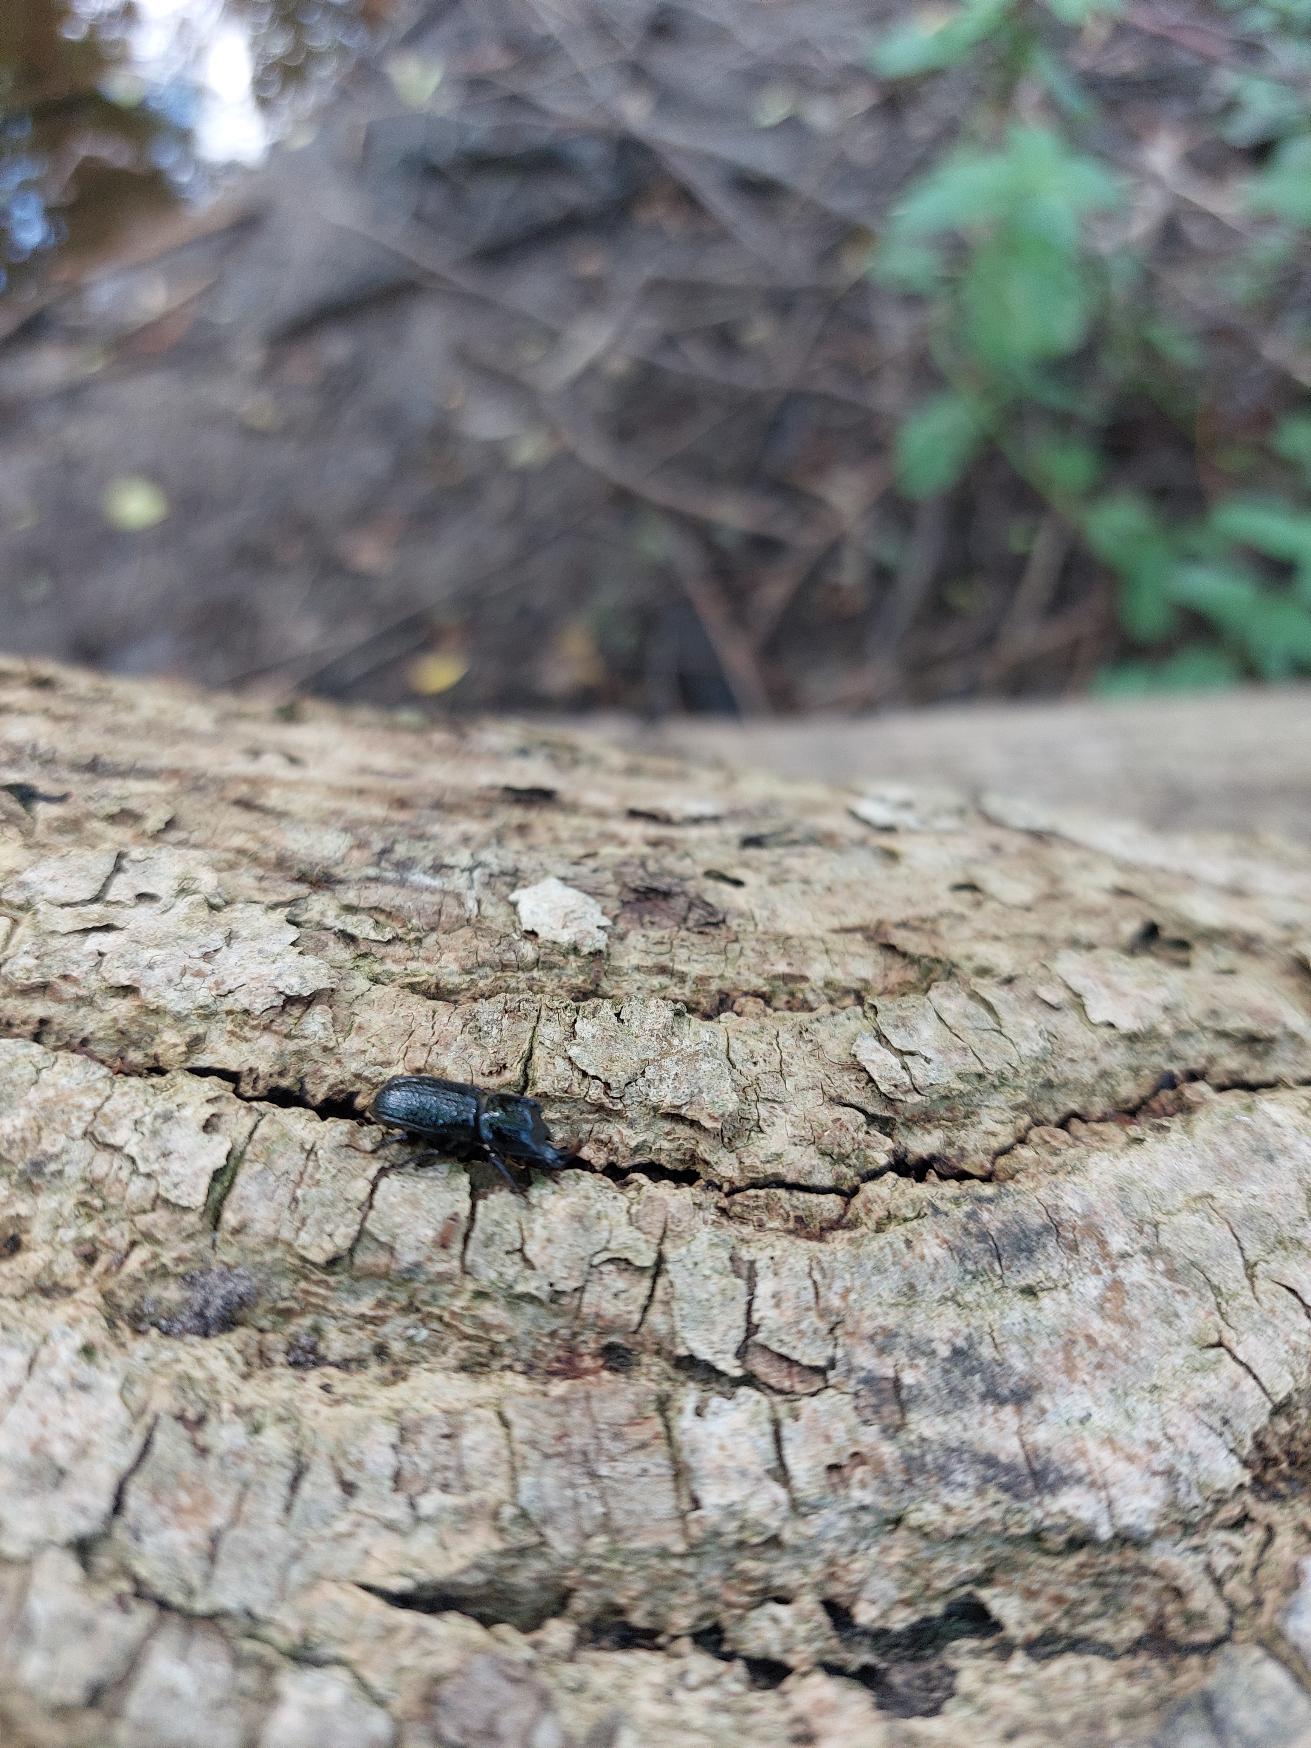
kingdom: Animalia
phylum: Arthropoda
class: Insecta
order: Coleoptera
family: Lucanidae
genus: Sinodendron
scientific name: Sinodendron cylindricum
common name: Valsehjort
